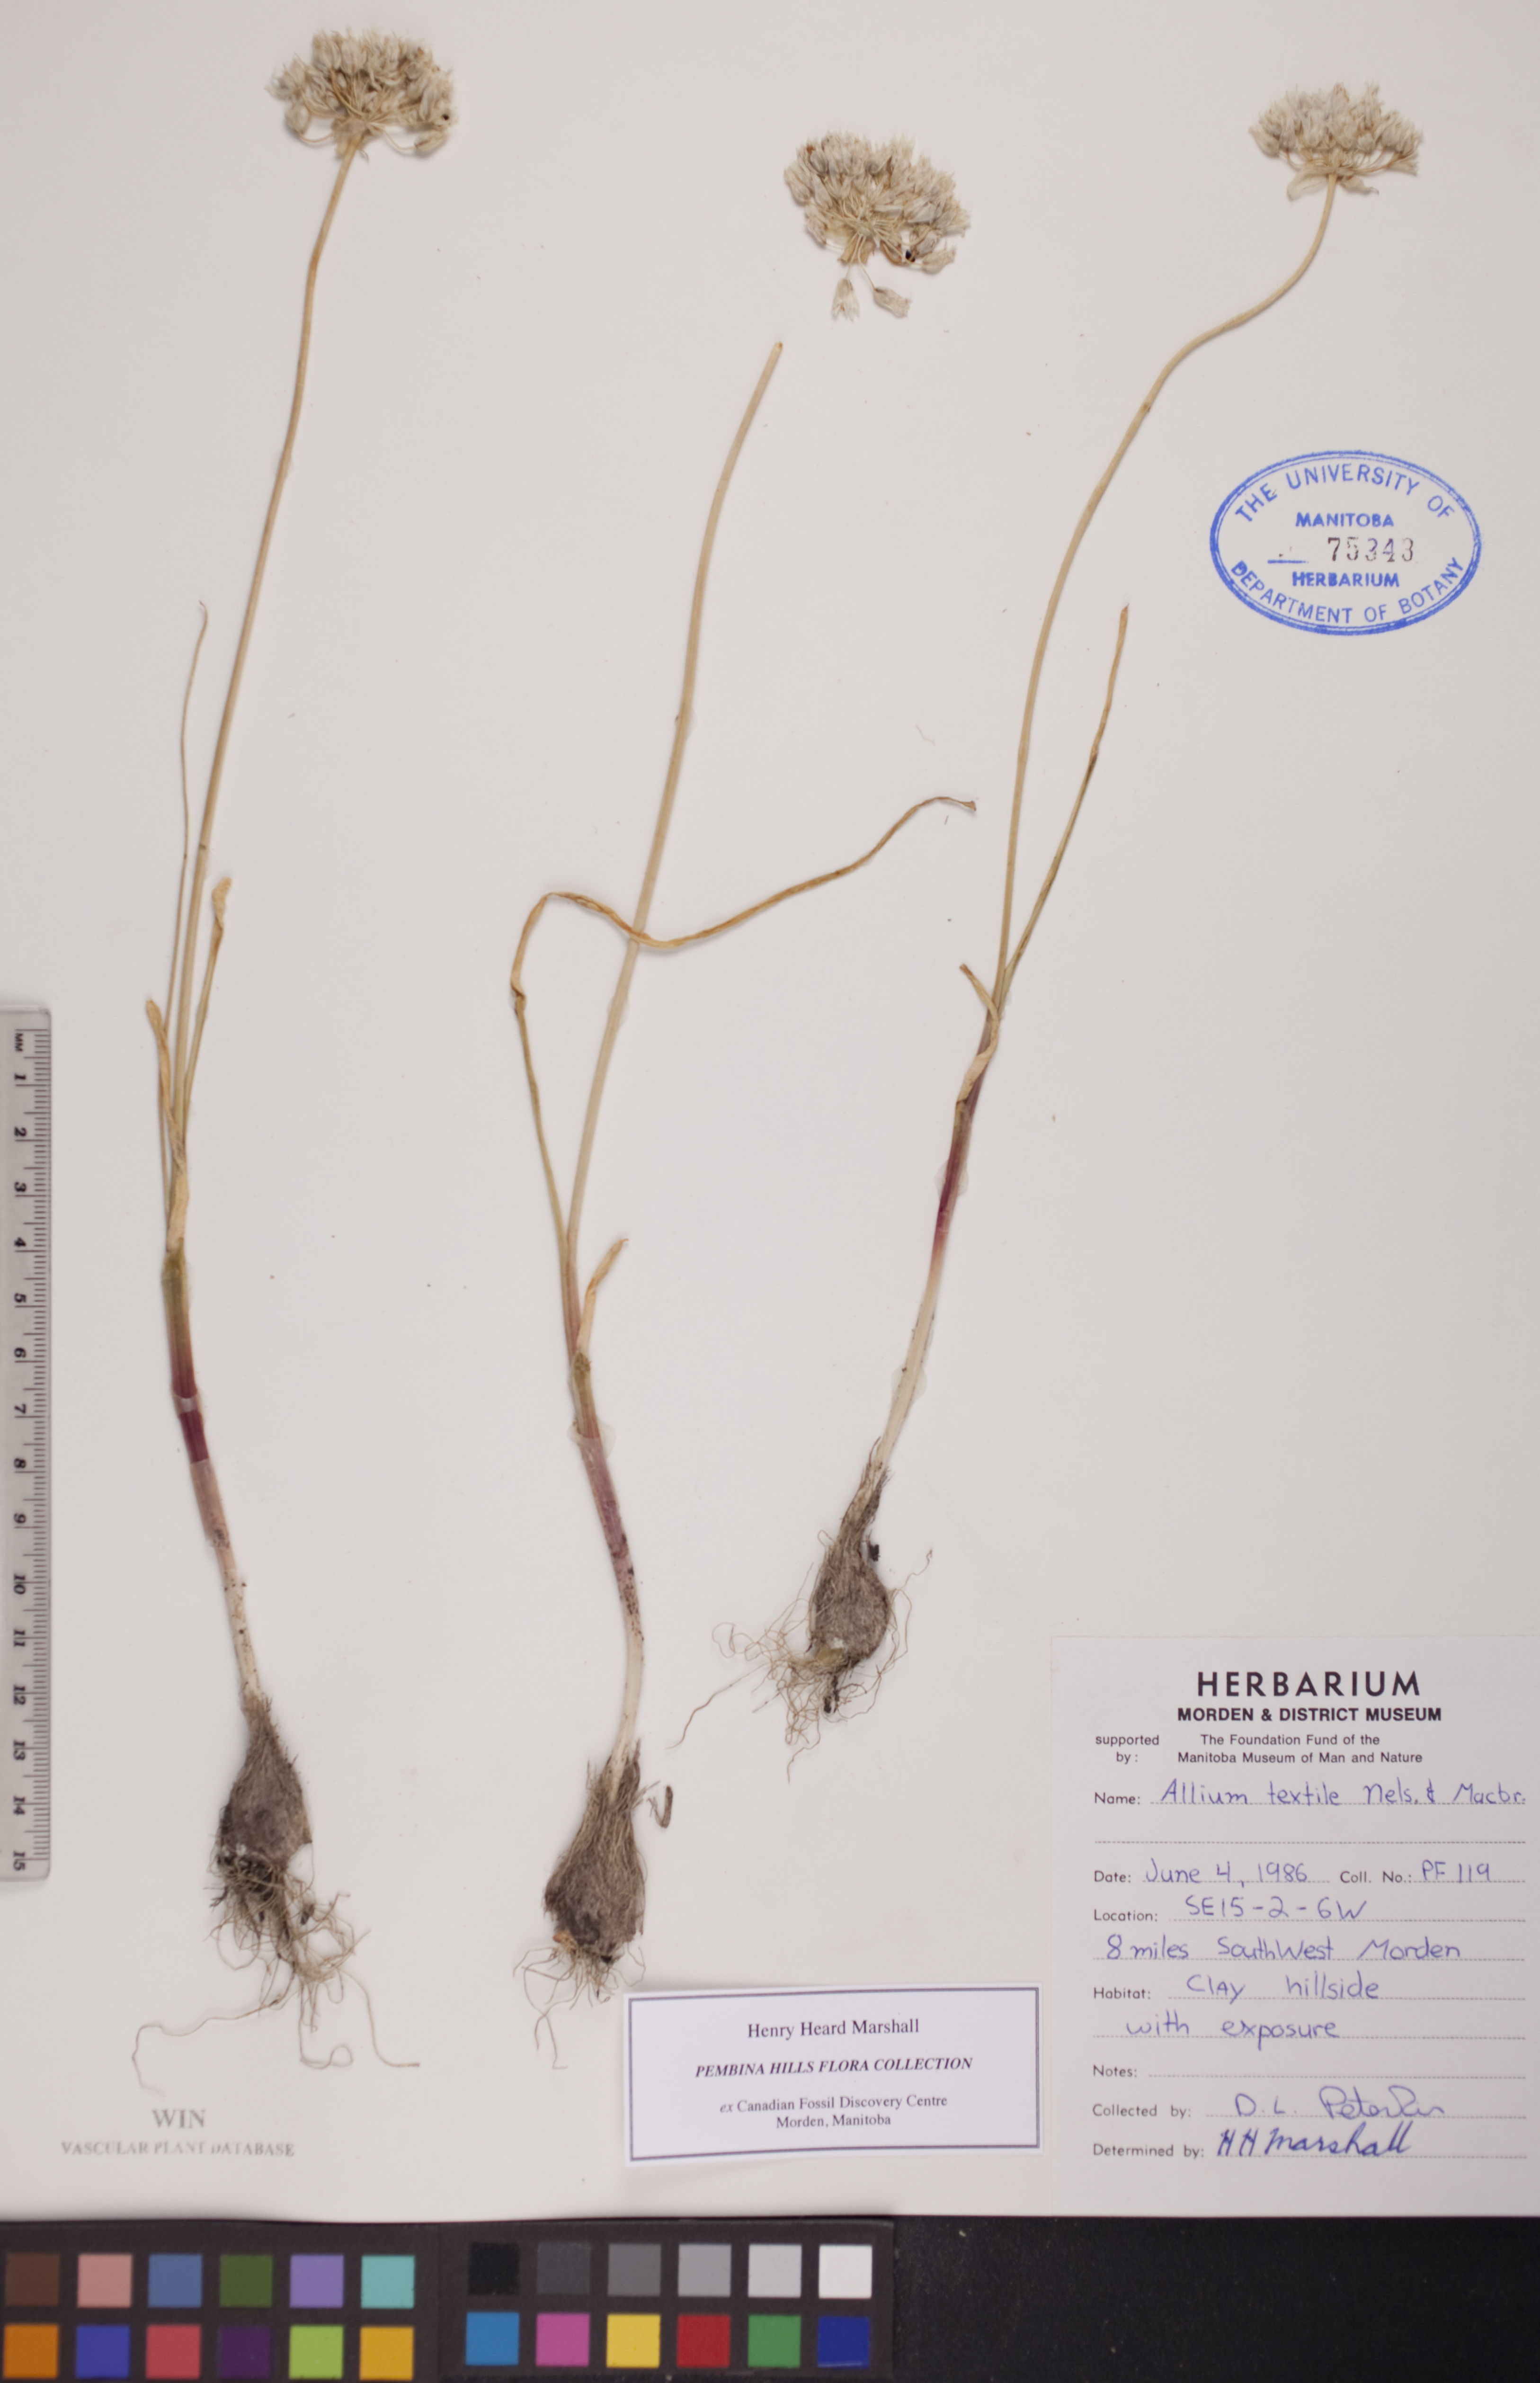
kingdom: Plantae
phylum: Tracheophyta
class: Liliopsida
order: Asparagales
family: Amaryllidaceae
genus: Allium
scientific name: Allium textile
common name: Prairie onion
